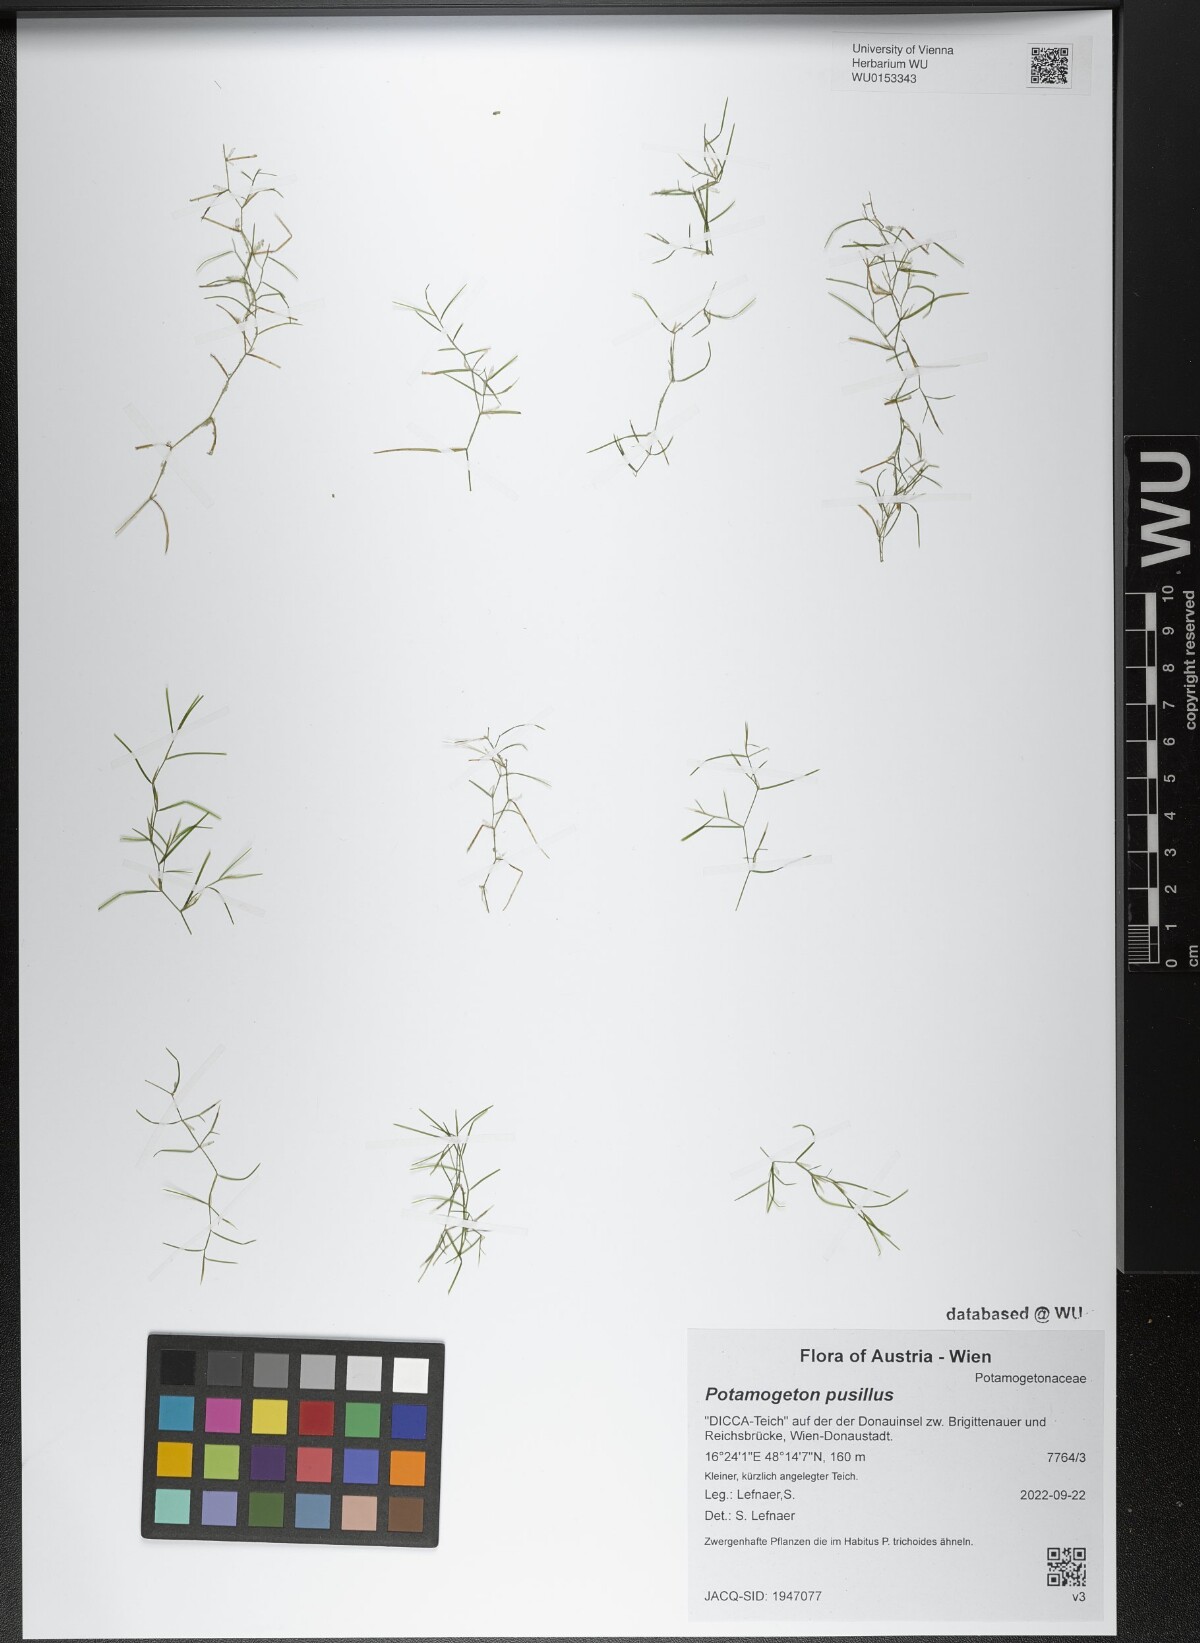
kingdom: Plantae
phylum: Tracheophyta
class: Liliopsida
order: Alismatales
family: Potamogetonaceae
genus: Potamogeton
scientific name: Potamogeton pusillus
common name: Lesser pondweed
